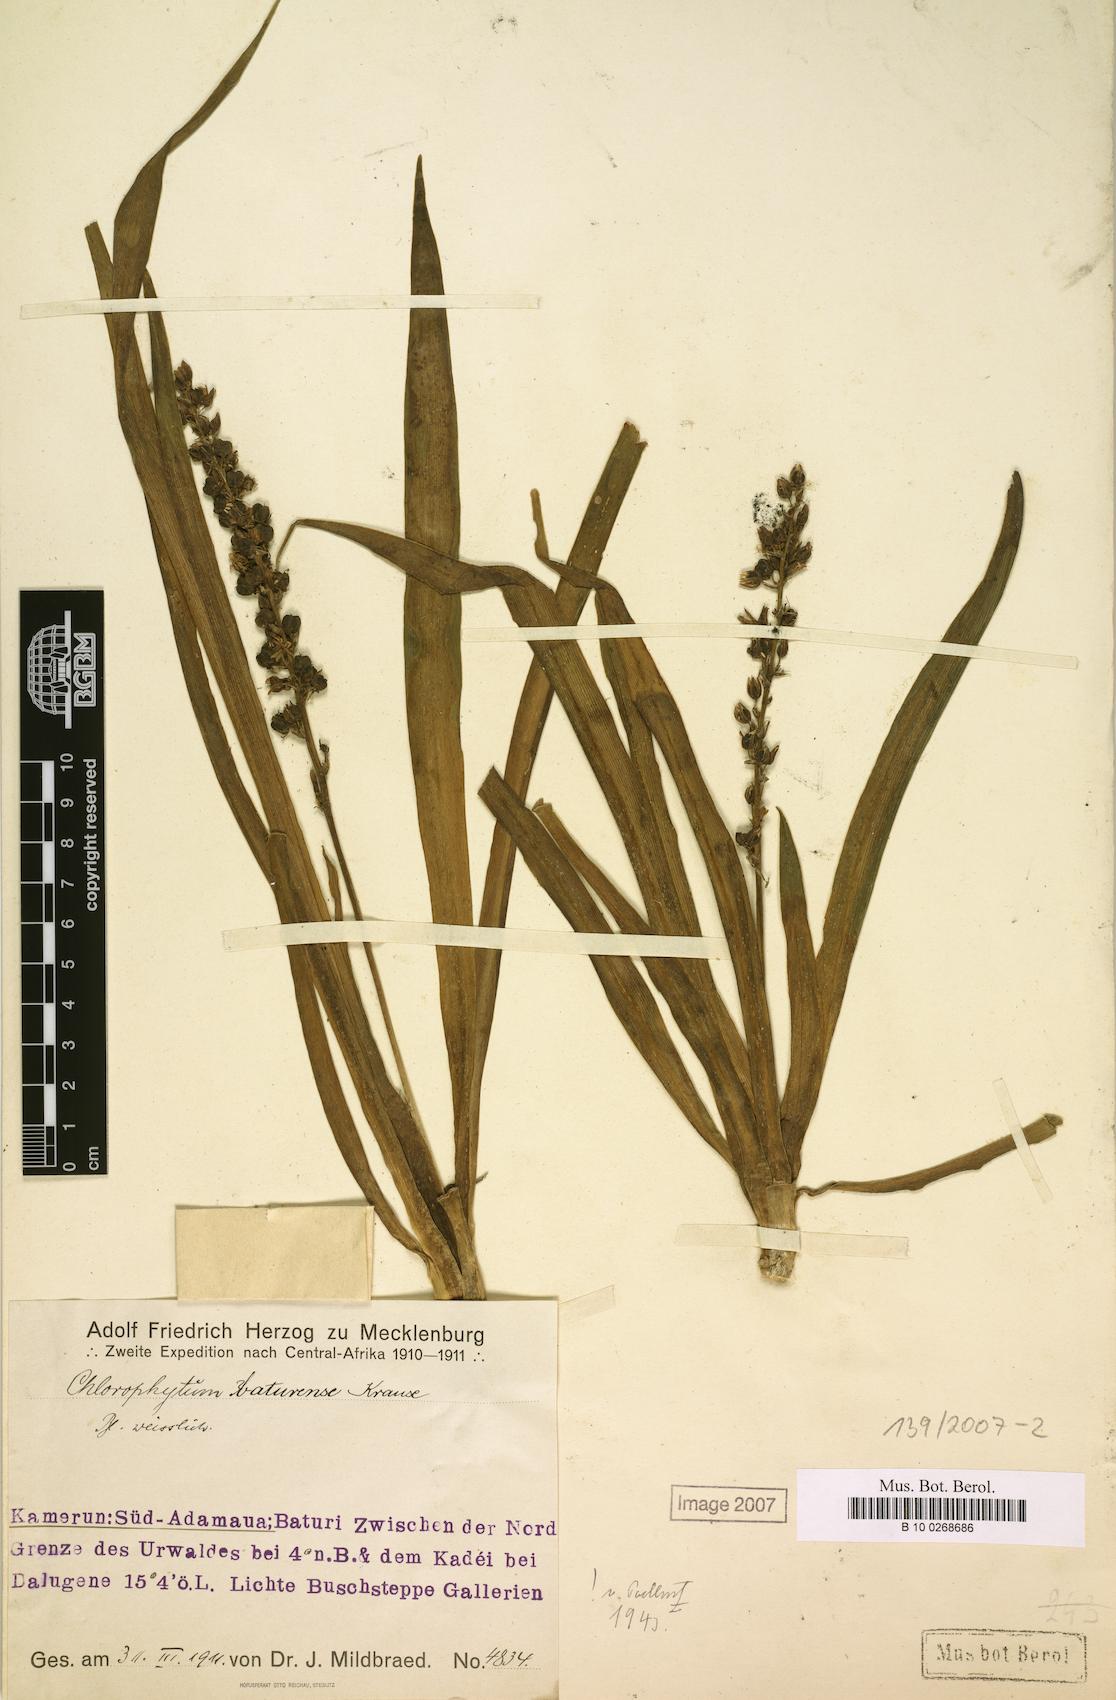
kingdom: Plantae
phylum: Tracheophyta
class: Liliopsida
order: Asparagales
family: Asparagaceae
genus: Chlorophytum
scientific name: Chlorophytum camporum
